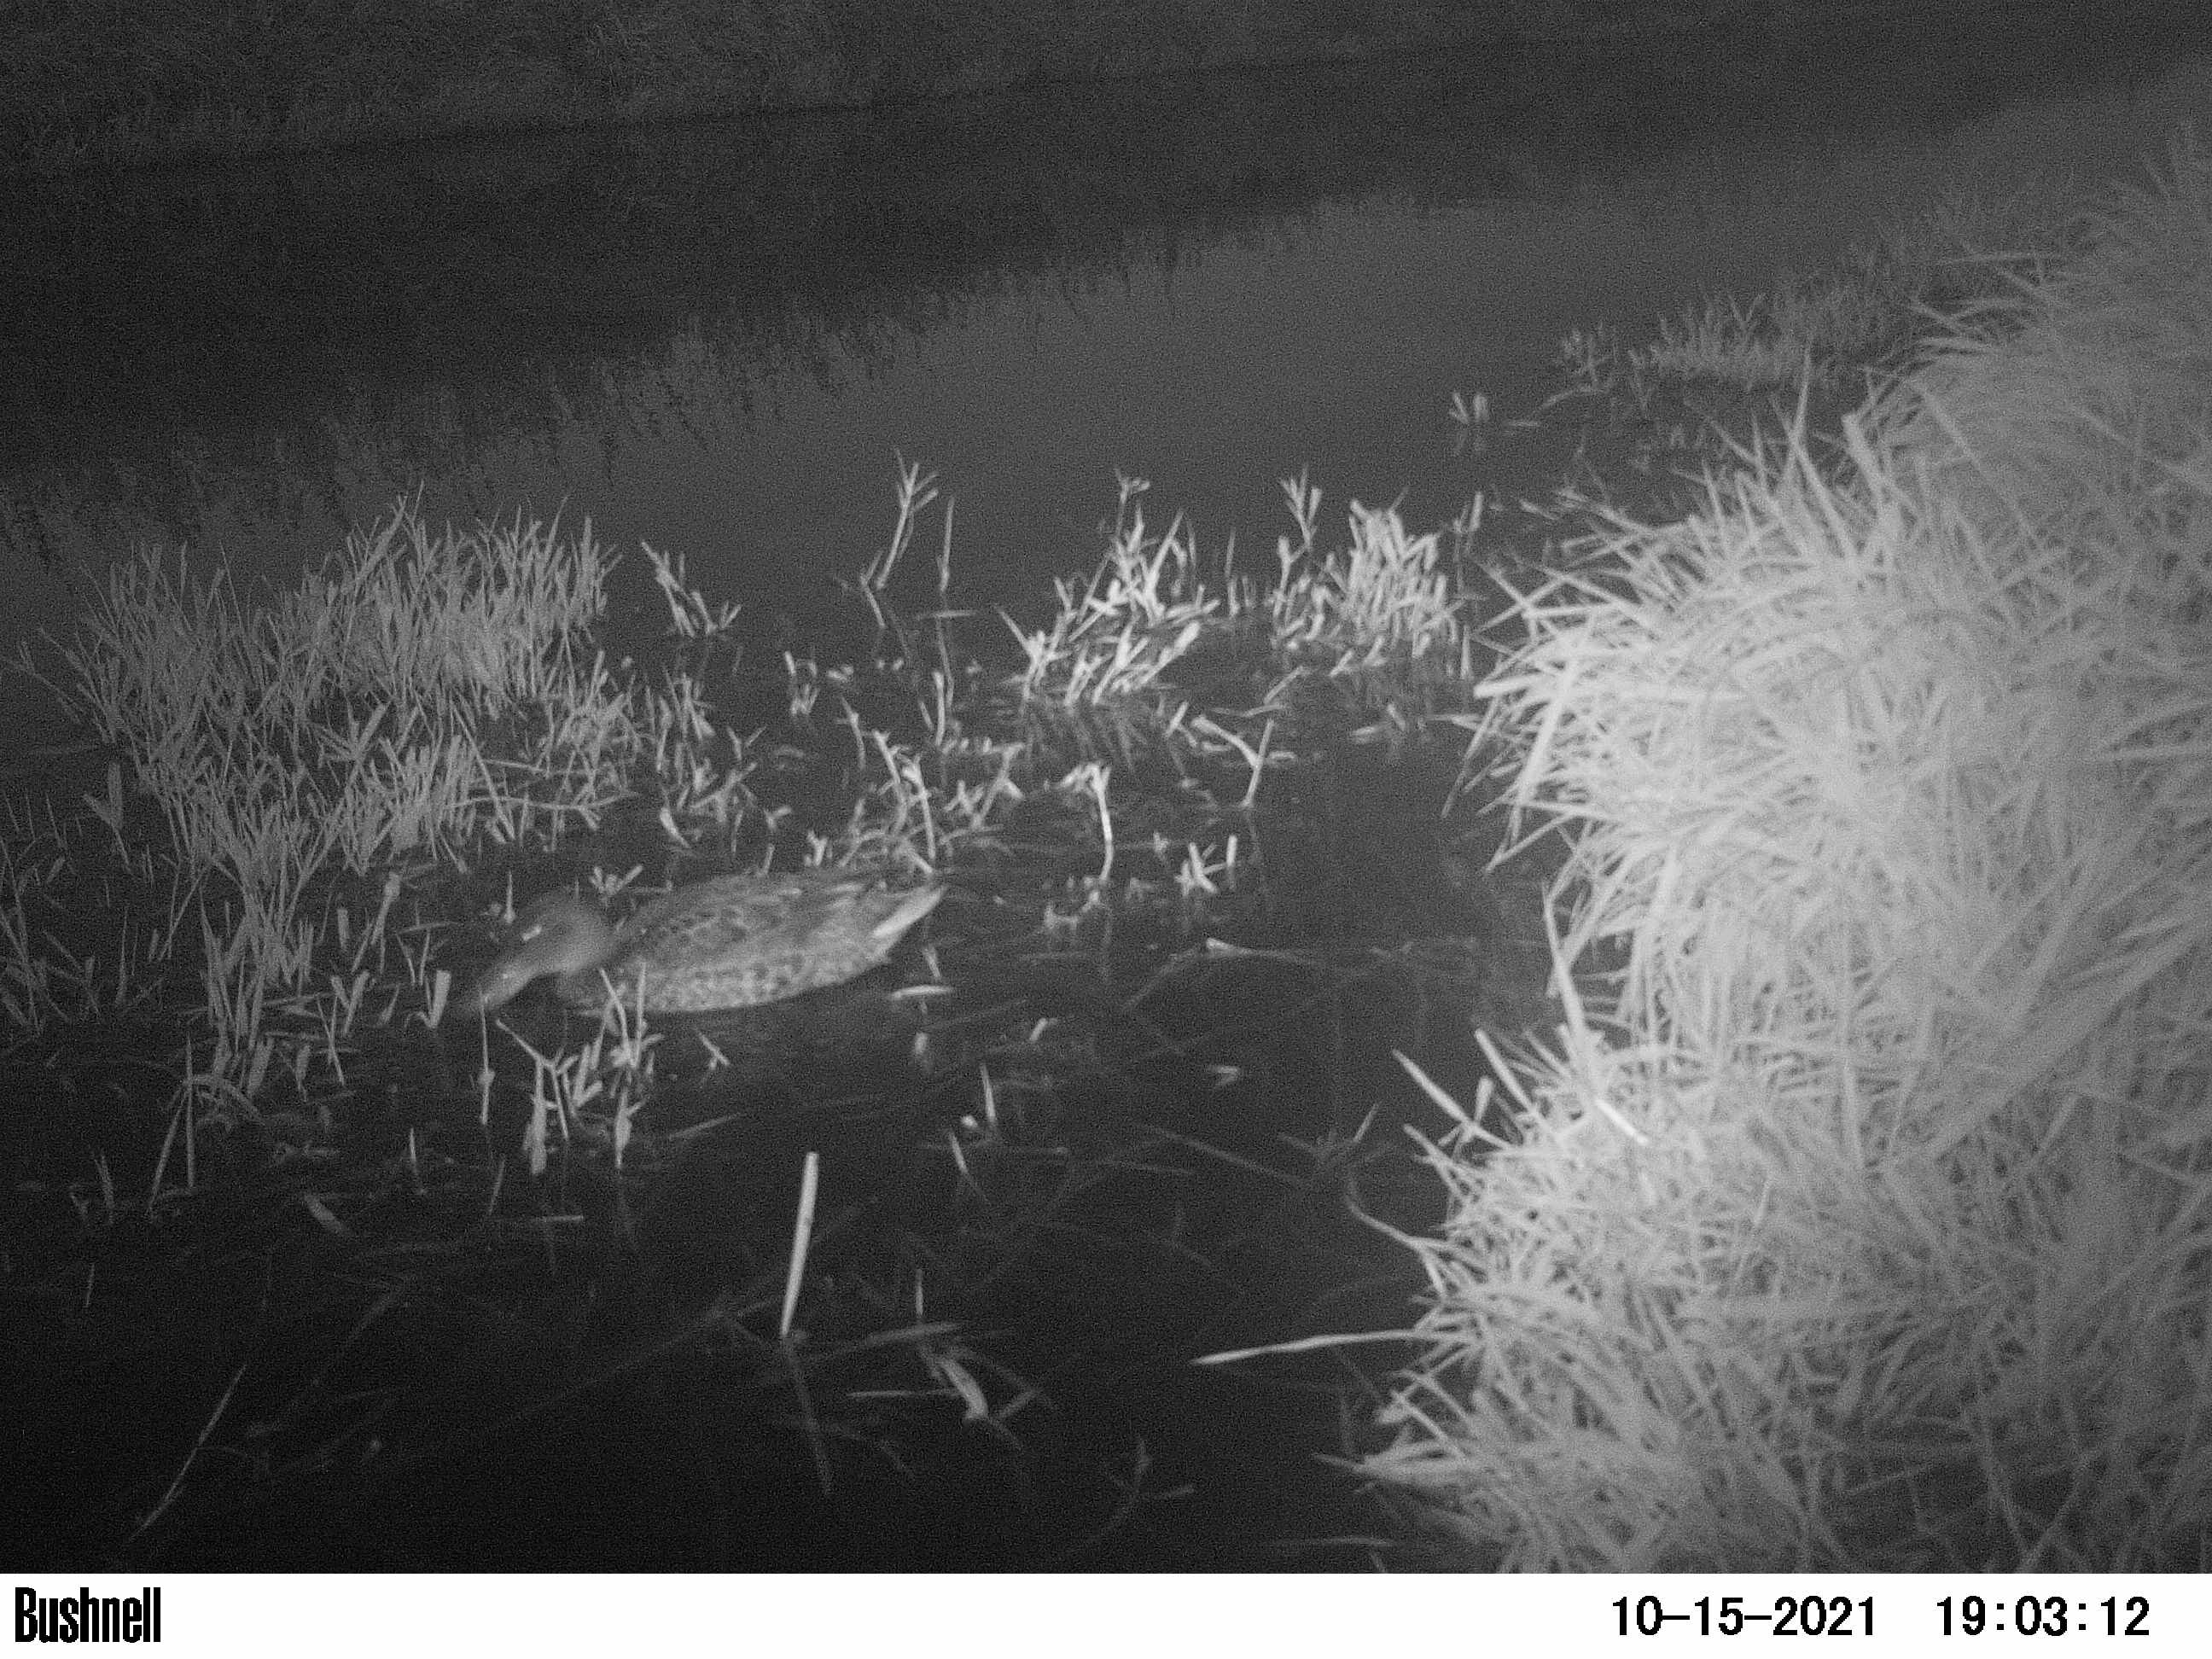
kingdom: Animalia
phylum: Chordata
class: Aves
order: Anseriformes
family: Anatidae
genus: Anas
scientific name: Anas
